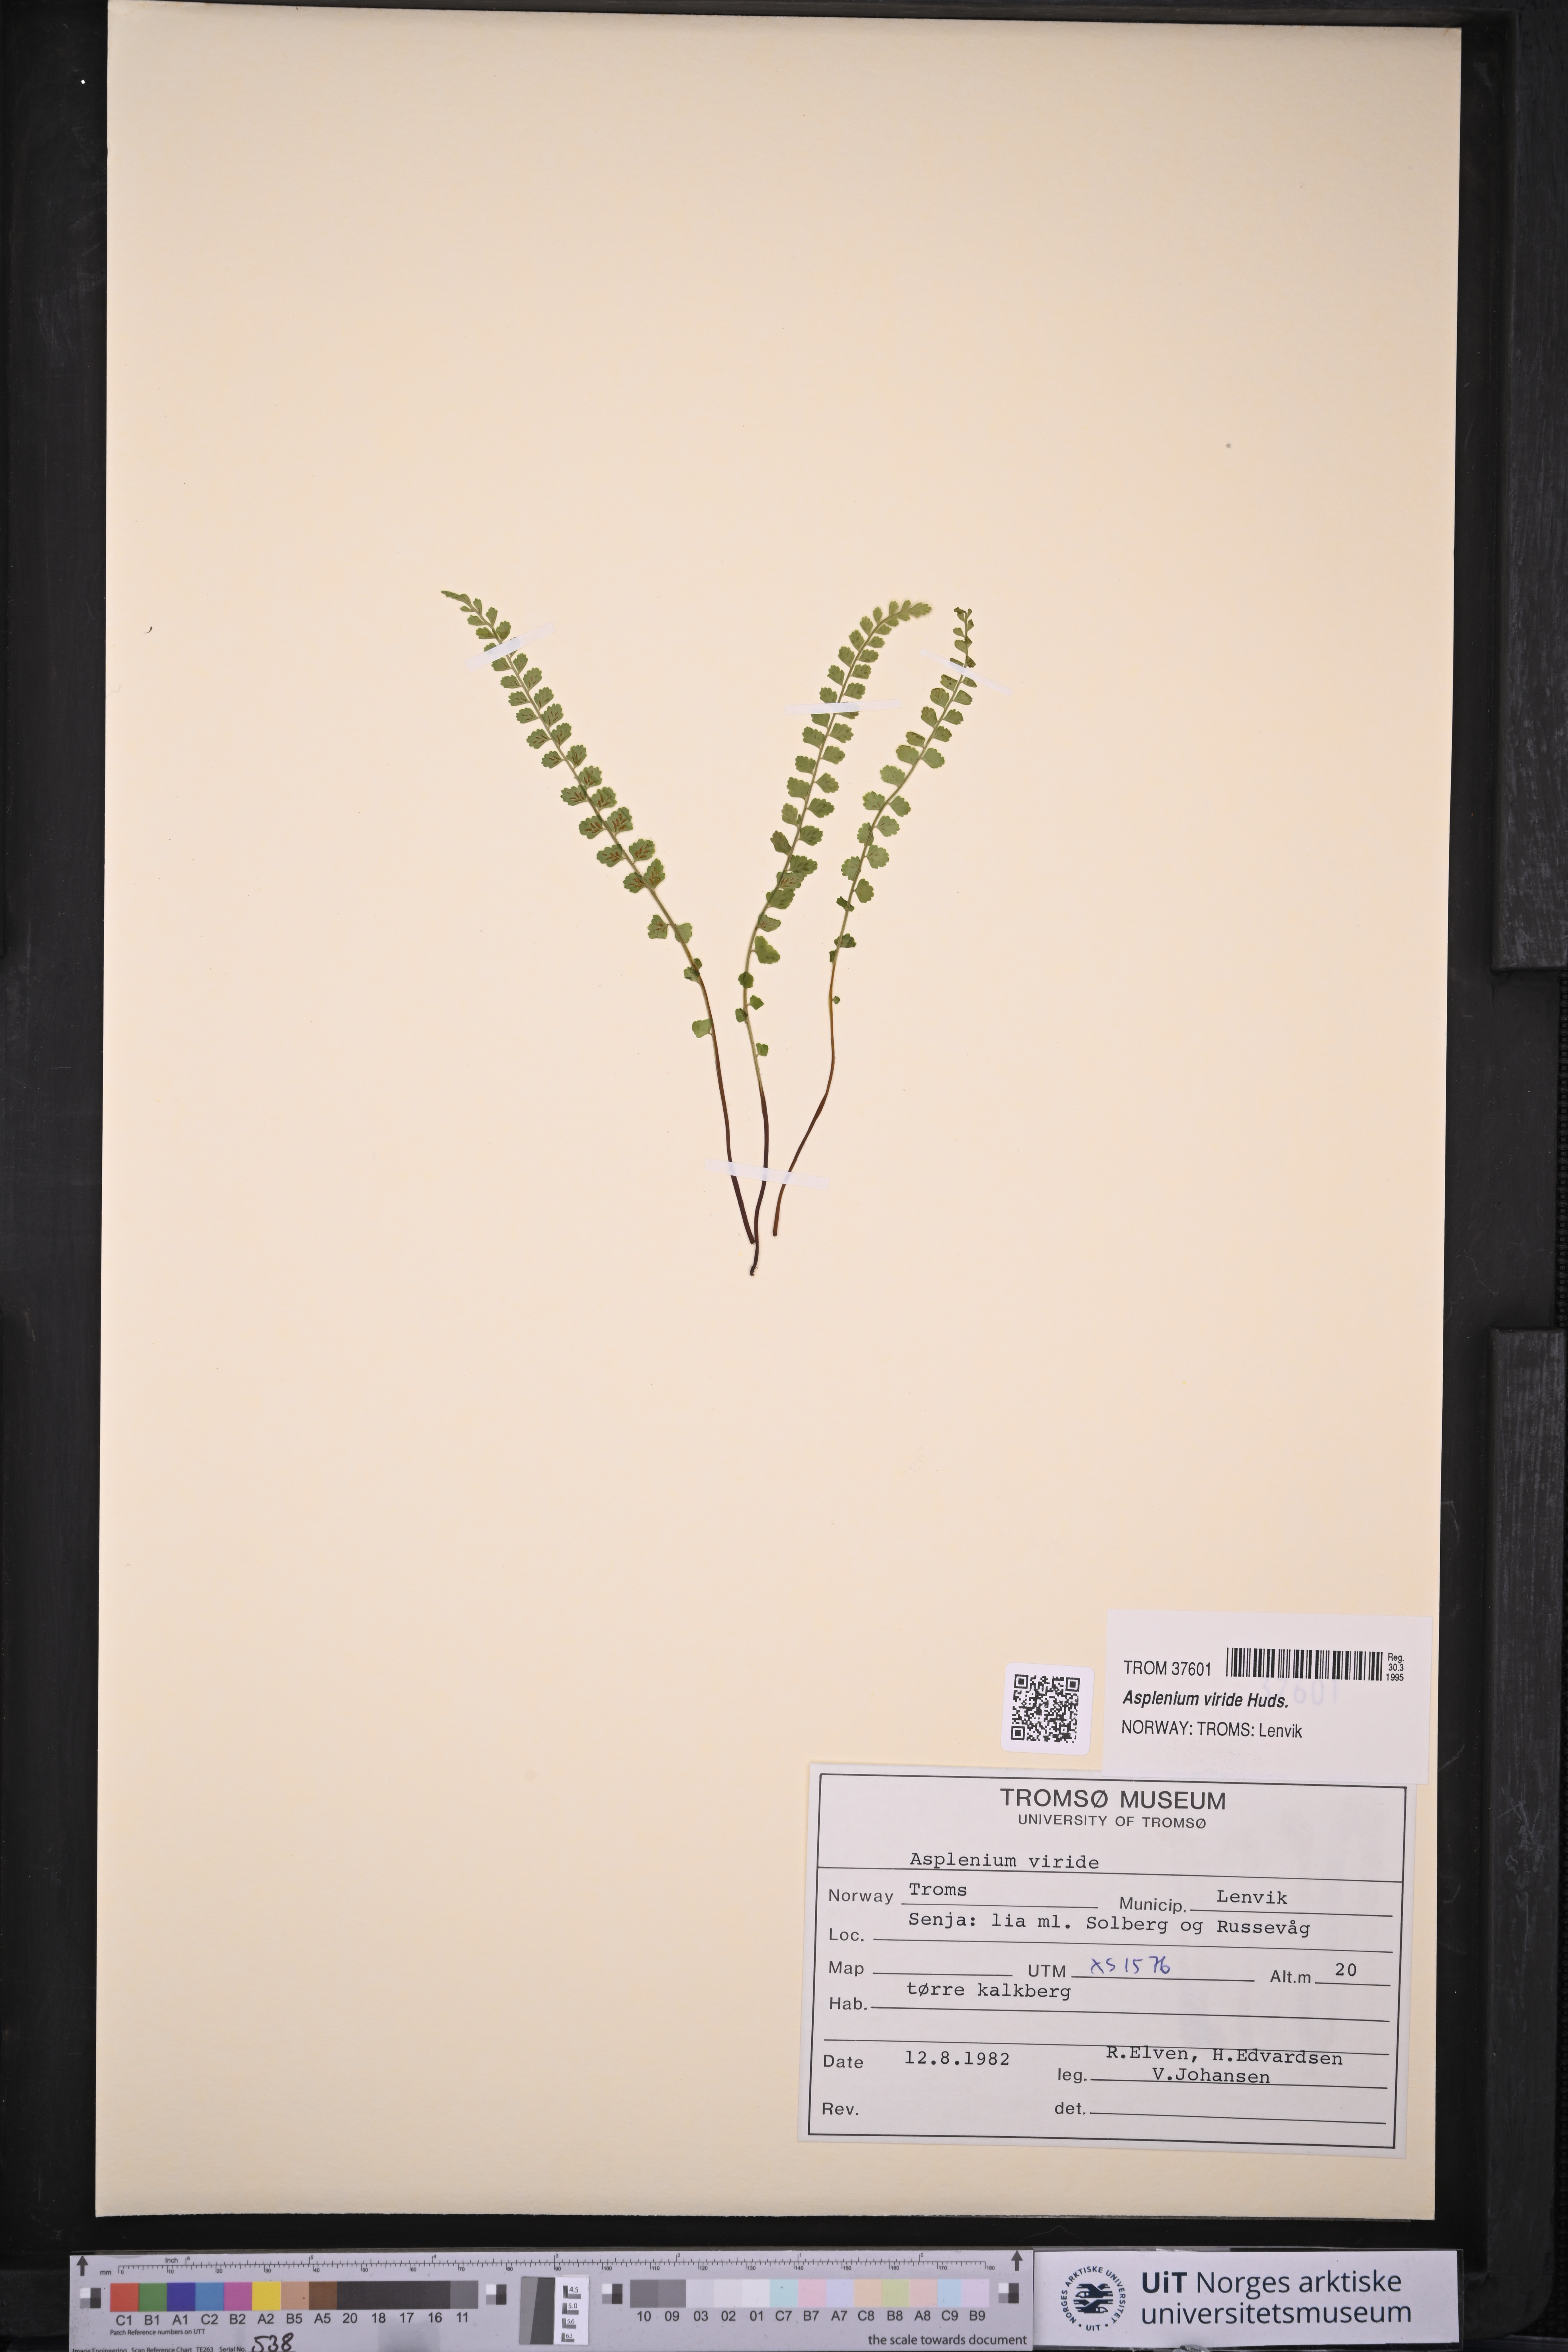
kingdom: Plantae
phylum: Tracheophyta
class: Polypodiopsida
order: Polypodiales
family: Aspleniaceae
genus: Asplenium
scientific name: Asplenium viride
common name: Green spleenwort
